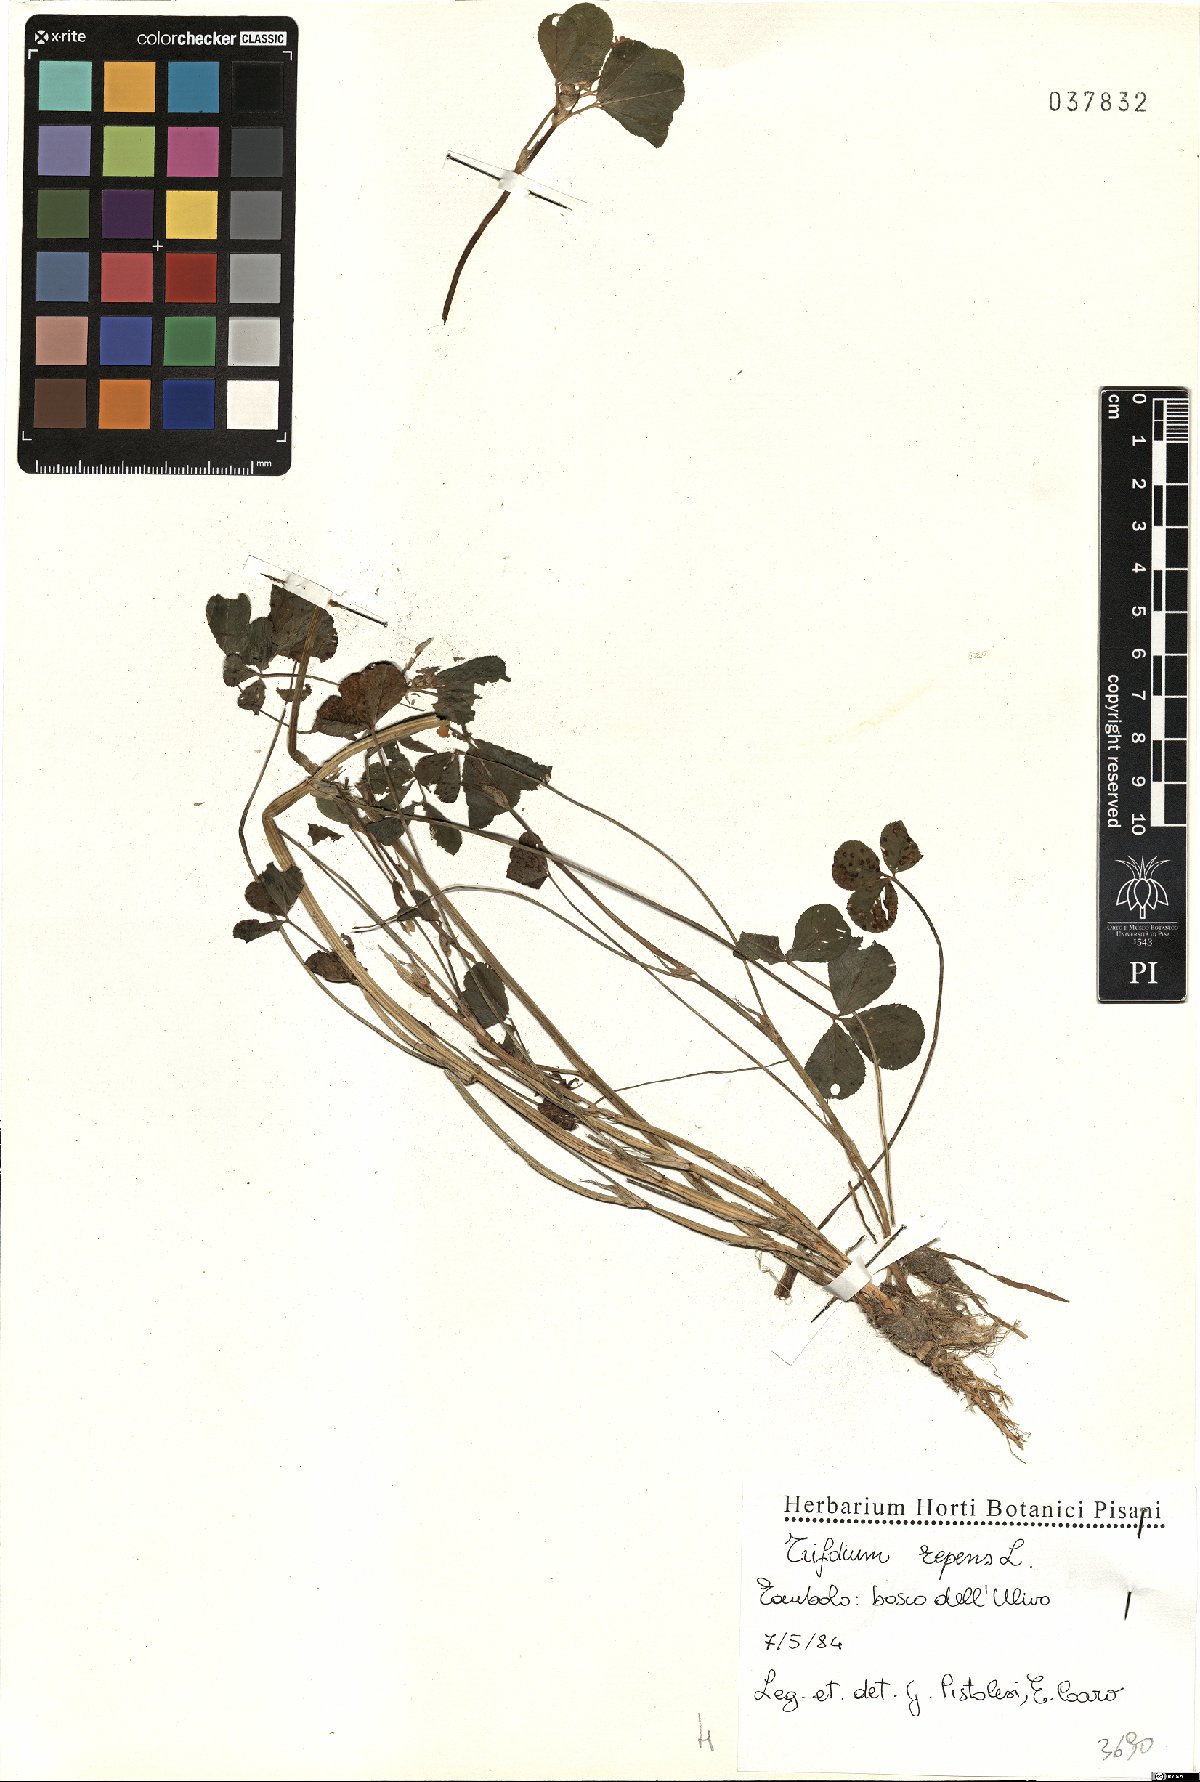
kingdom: Plantae
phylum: Tracheophyta
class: Magnoliopsida
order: Fabales
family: Fabaceae
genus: Trifolium
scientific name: Trifolium repens
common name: White clover
